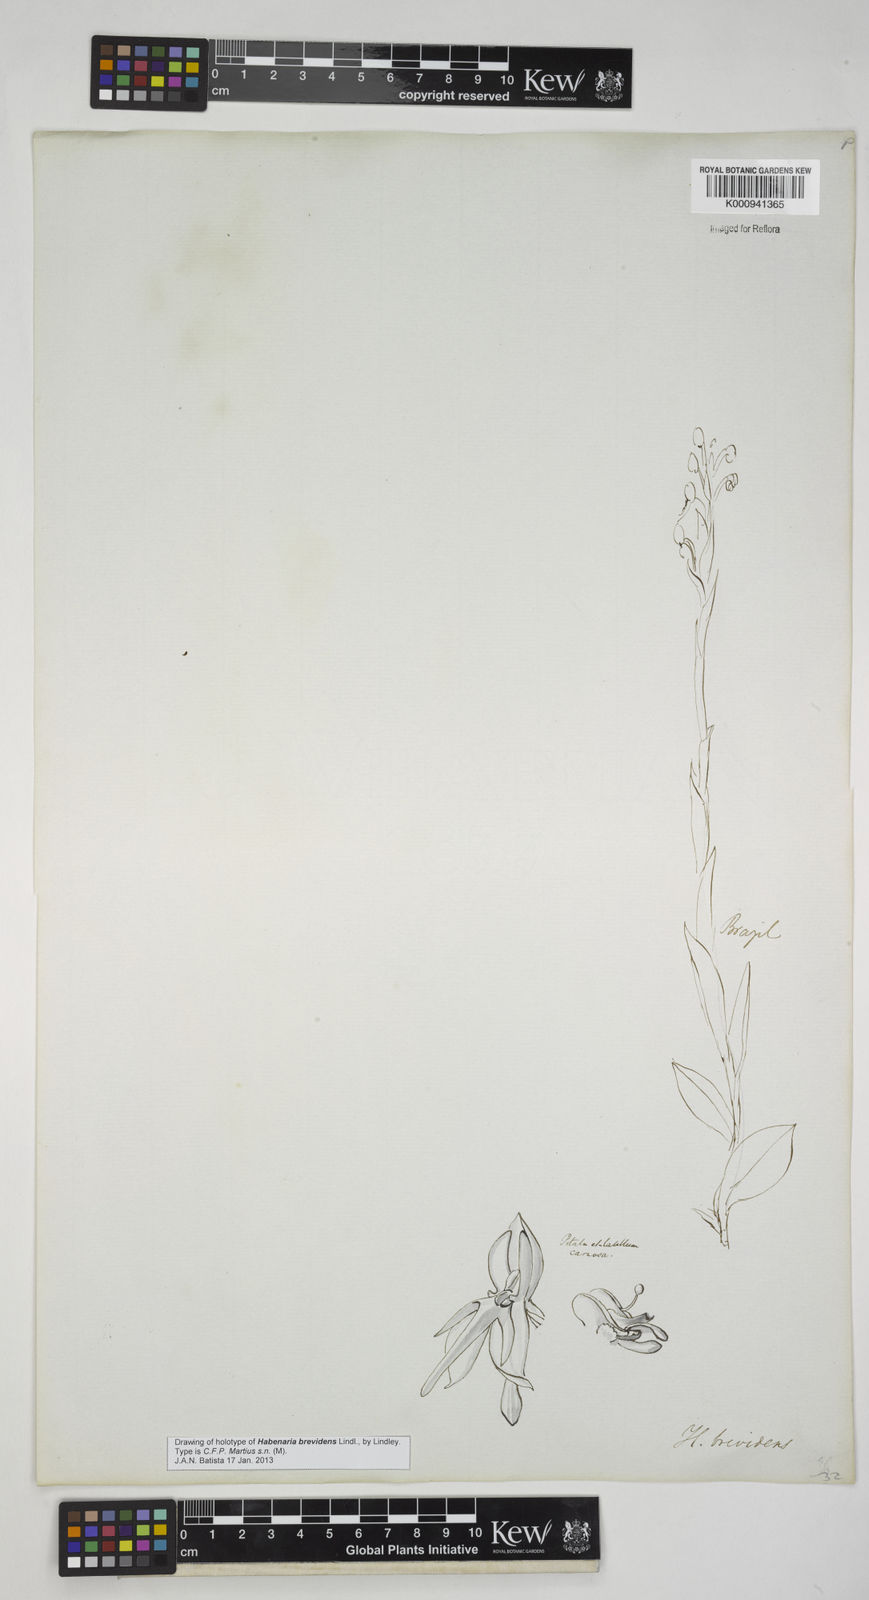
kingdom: Plantae
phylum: Tracheophyta
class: Liliopsida
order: Asparagales
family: Orchidaceae
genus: Habenaria
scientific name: Habenaria brevidens
